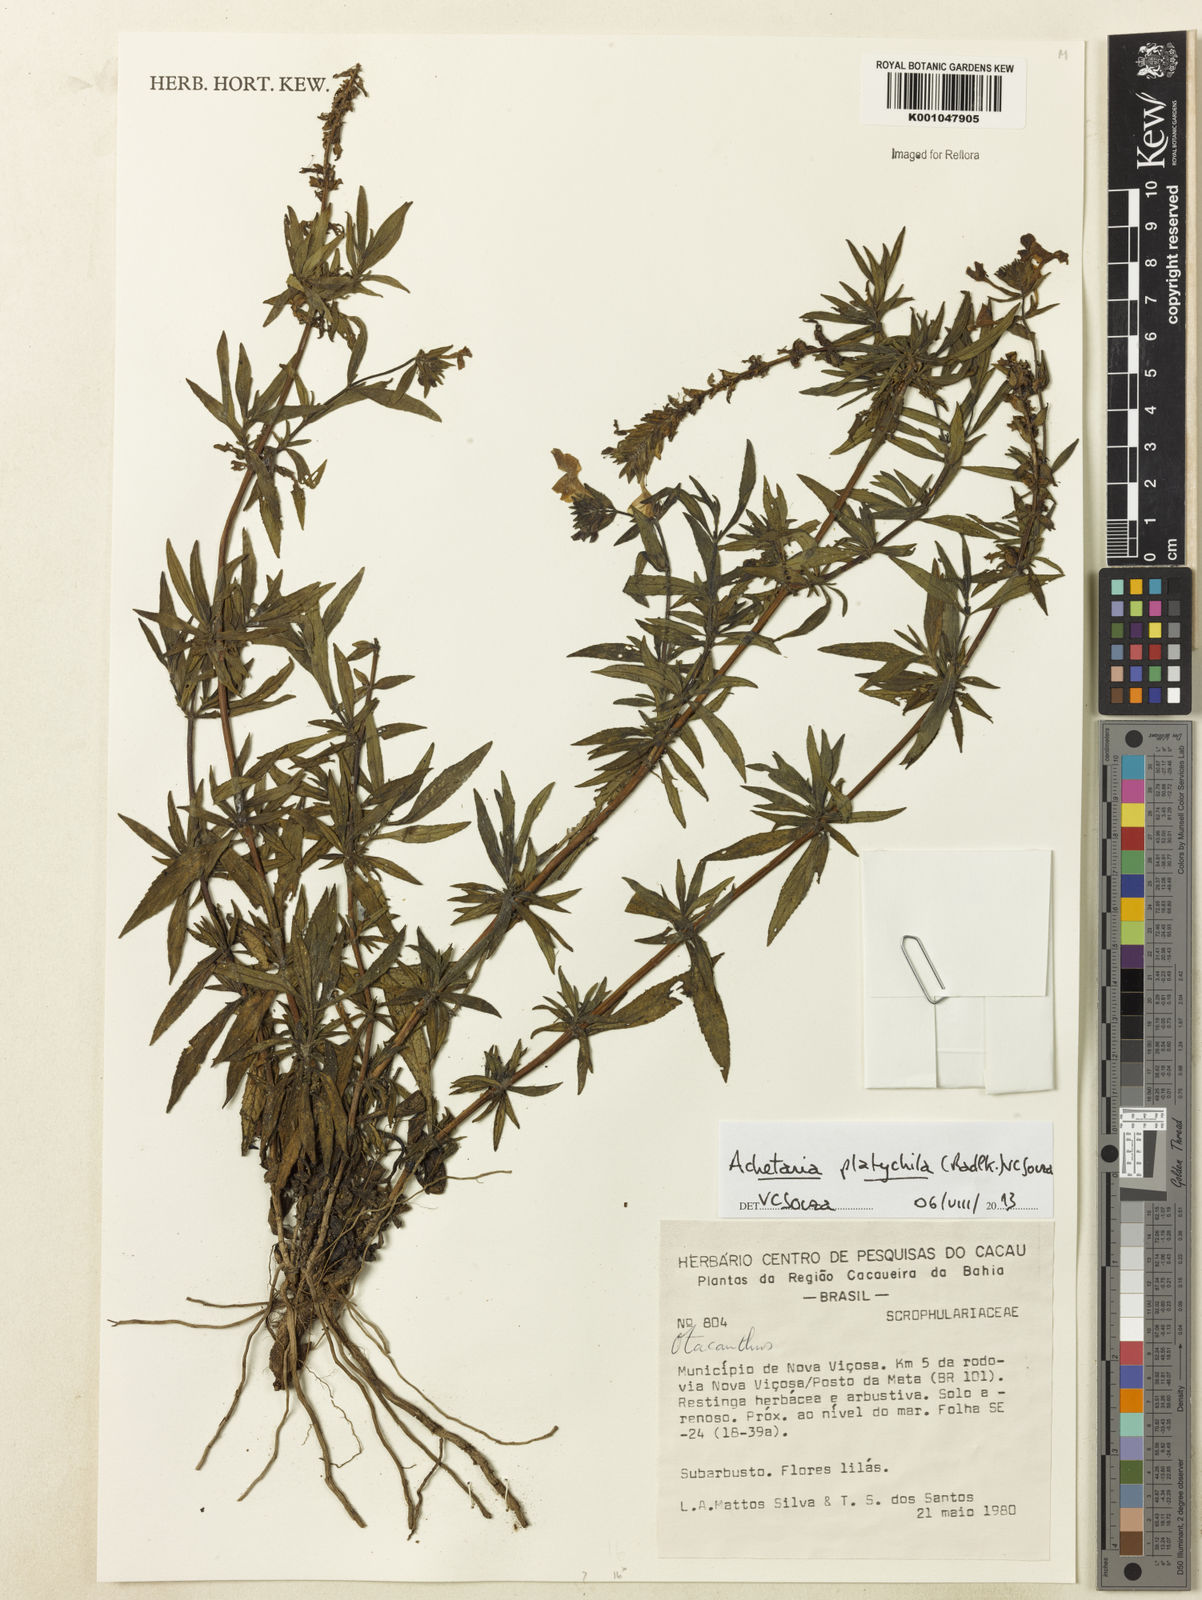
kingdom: Plantae
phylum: Tracheophyta
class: Magnoliopsida
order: Lamiales
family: Plantaginaceae
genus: Matourea
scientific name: Matourea platychila
